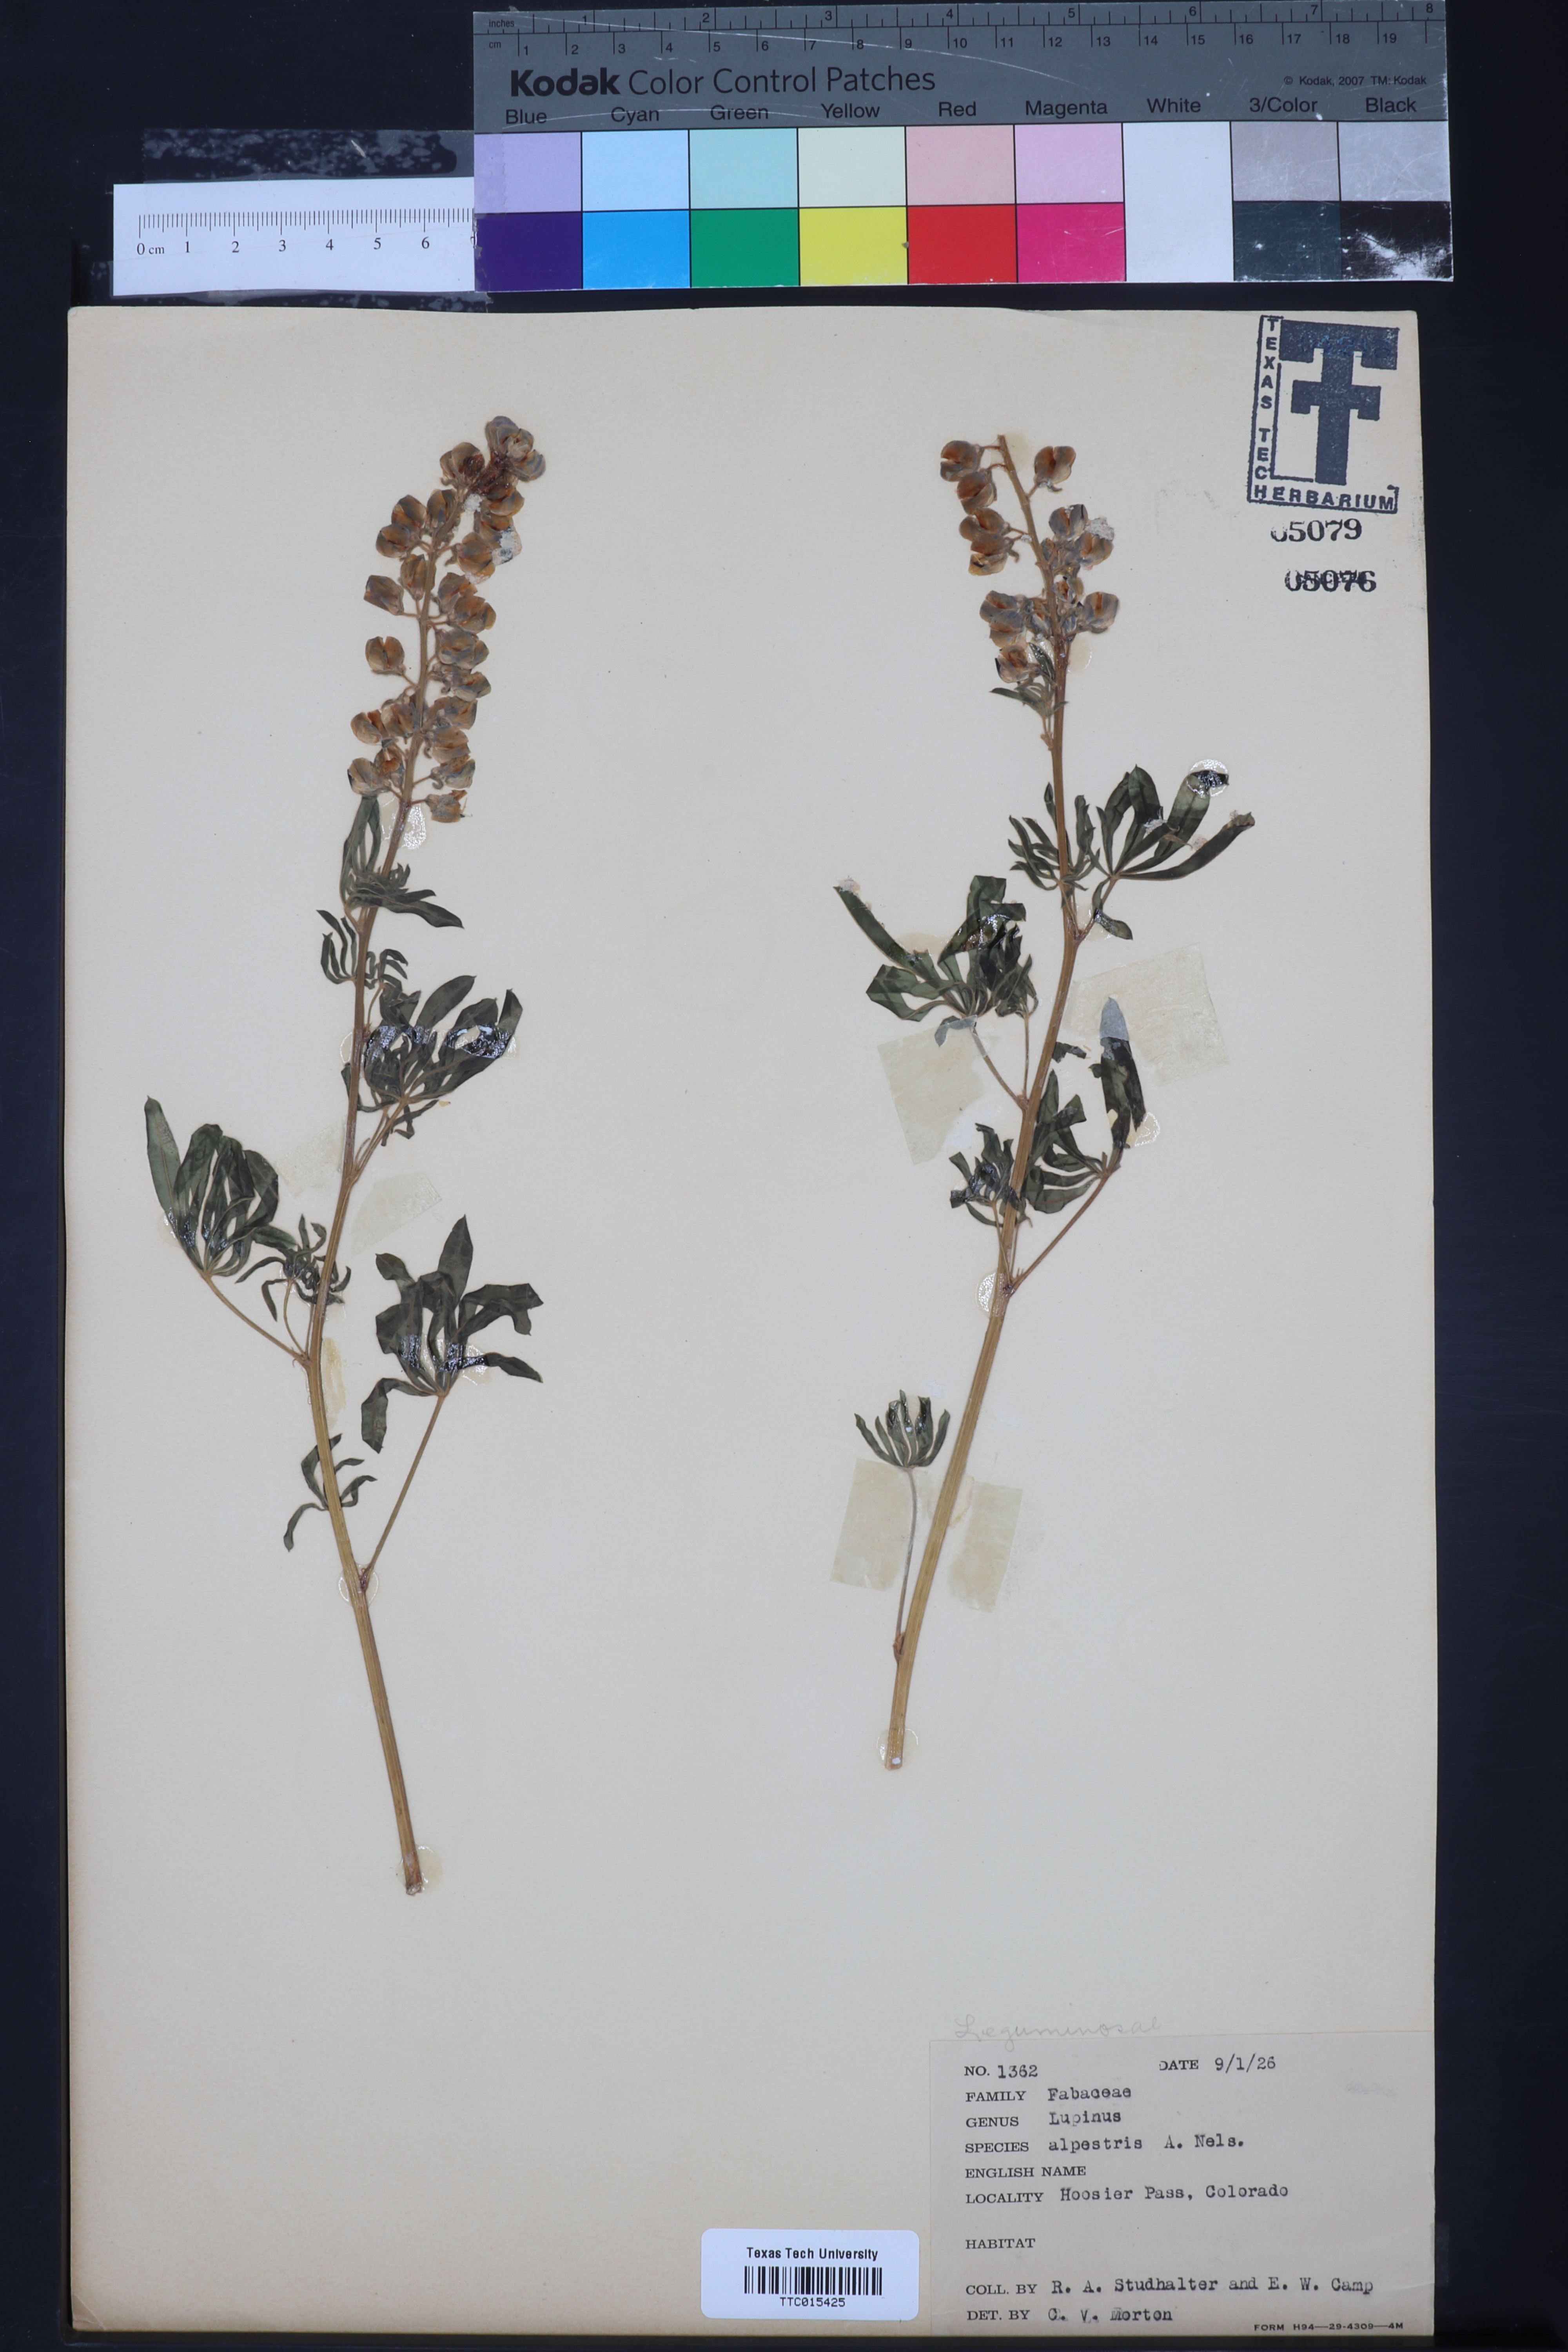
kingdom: Plantae
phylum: Tracheophyta
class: Magnoliopsida
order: Fabales
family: Fabaceae
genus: Lupinus
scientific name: Lupinus argenteus
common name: Silvery lupine
